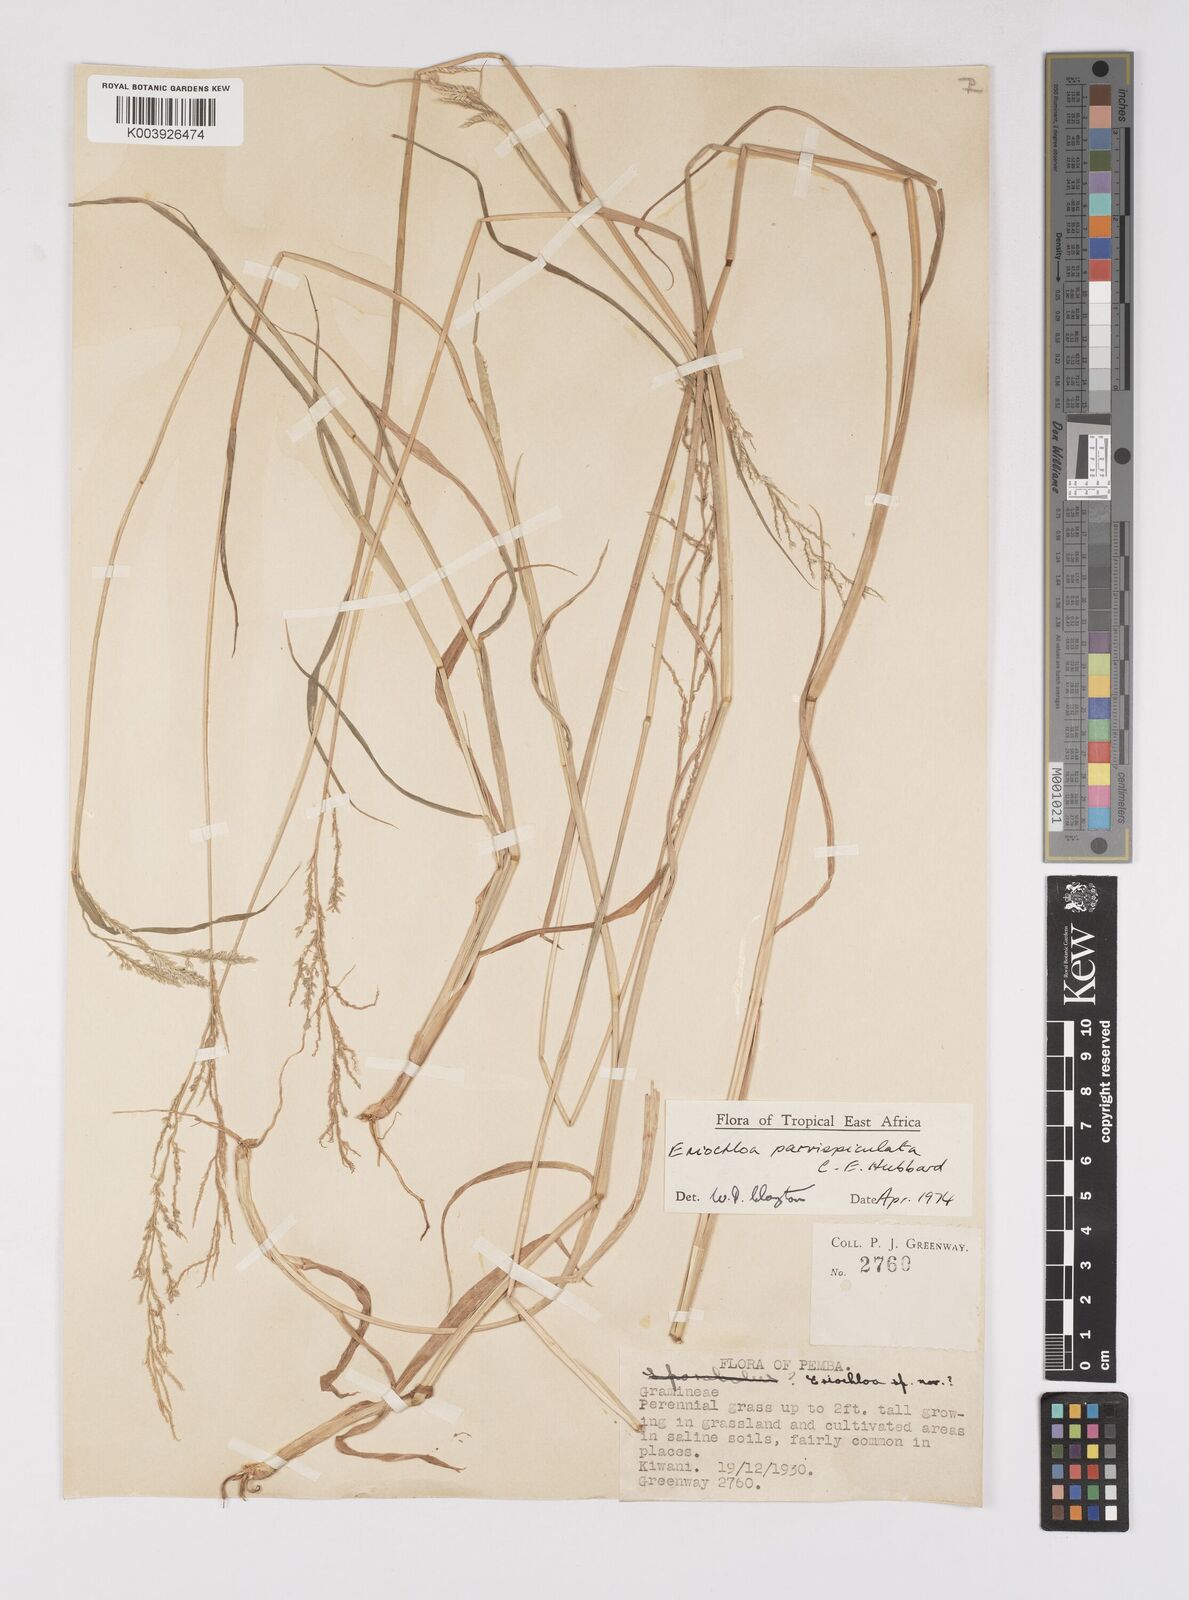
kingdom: Plantae
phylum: Tracheophyta
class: Liliopsida
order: Poales
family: Poaceae
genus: Eriochloa
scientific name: Eriochloa parvispiculata
